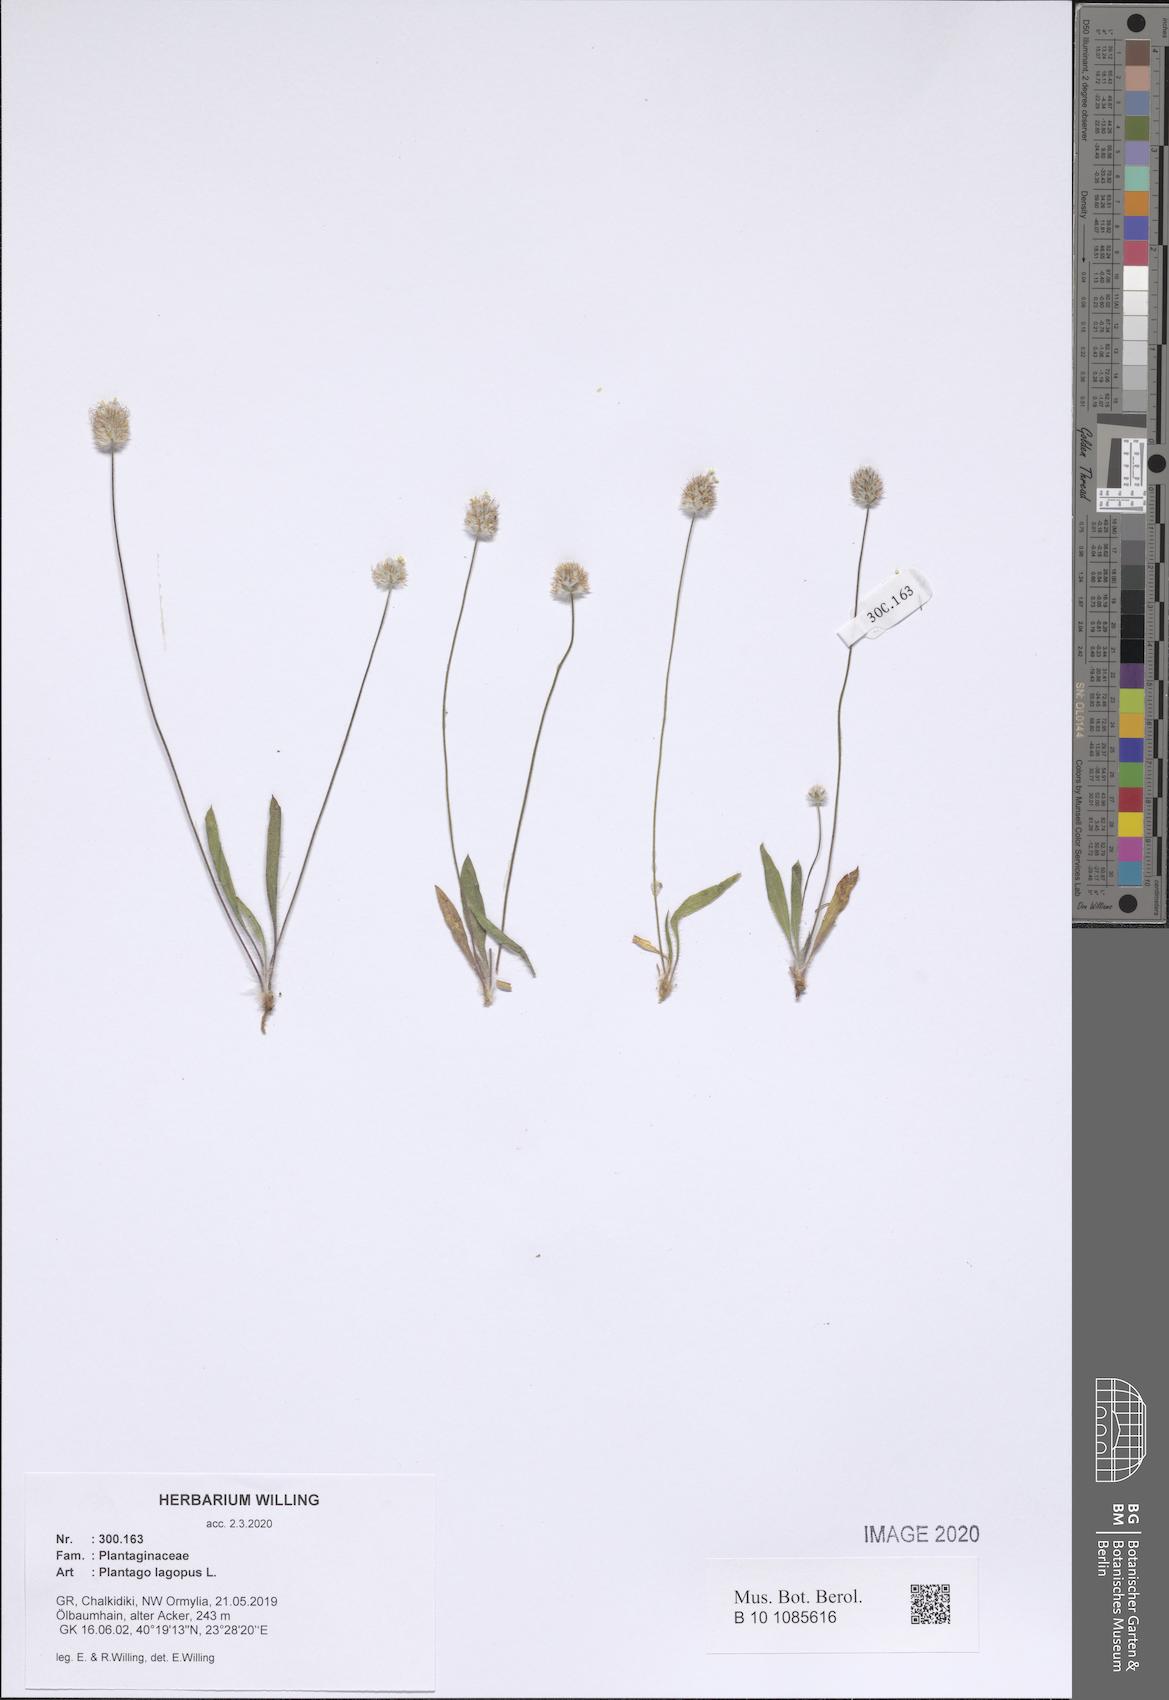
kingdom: Plantae
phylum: Tracheophyta
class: Magnoliopsida
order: Lamiales
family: Plantaginaceae
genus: Plantago
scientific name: Plantago lagopus
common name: Hare-foot plantain
